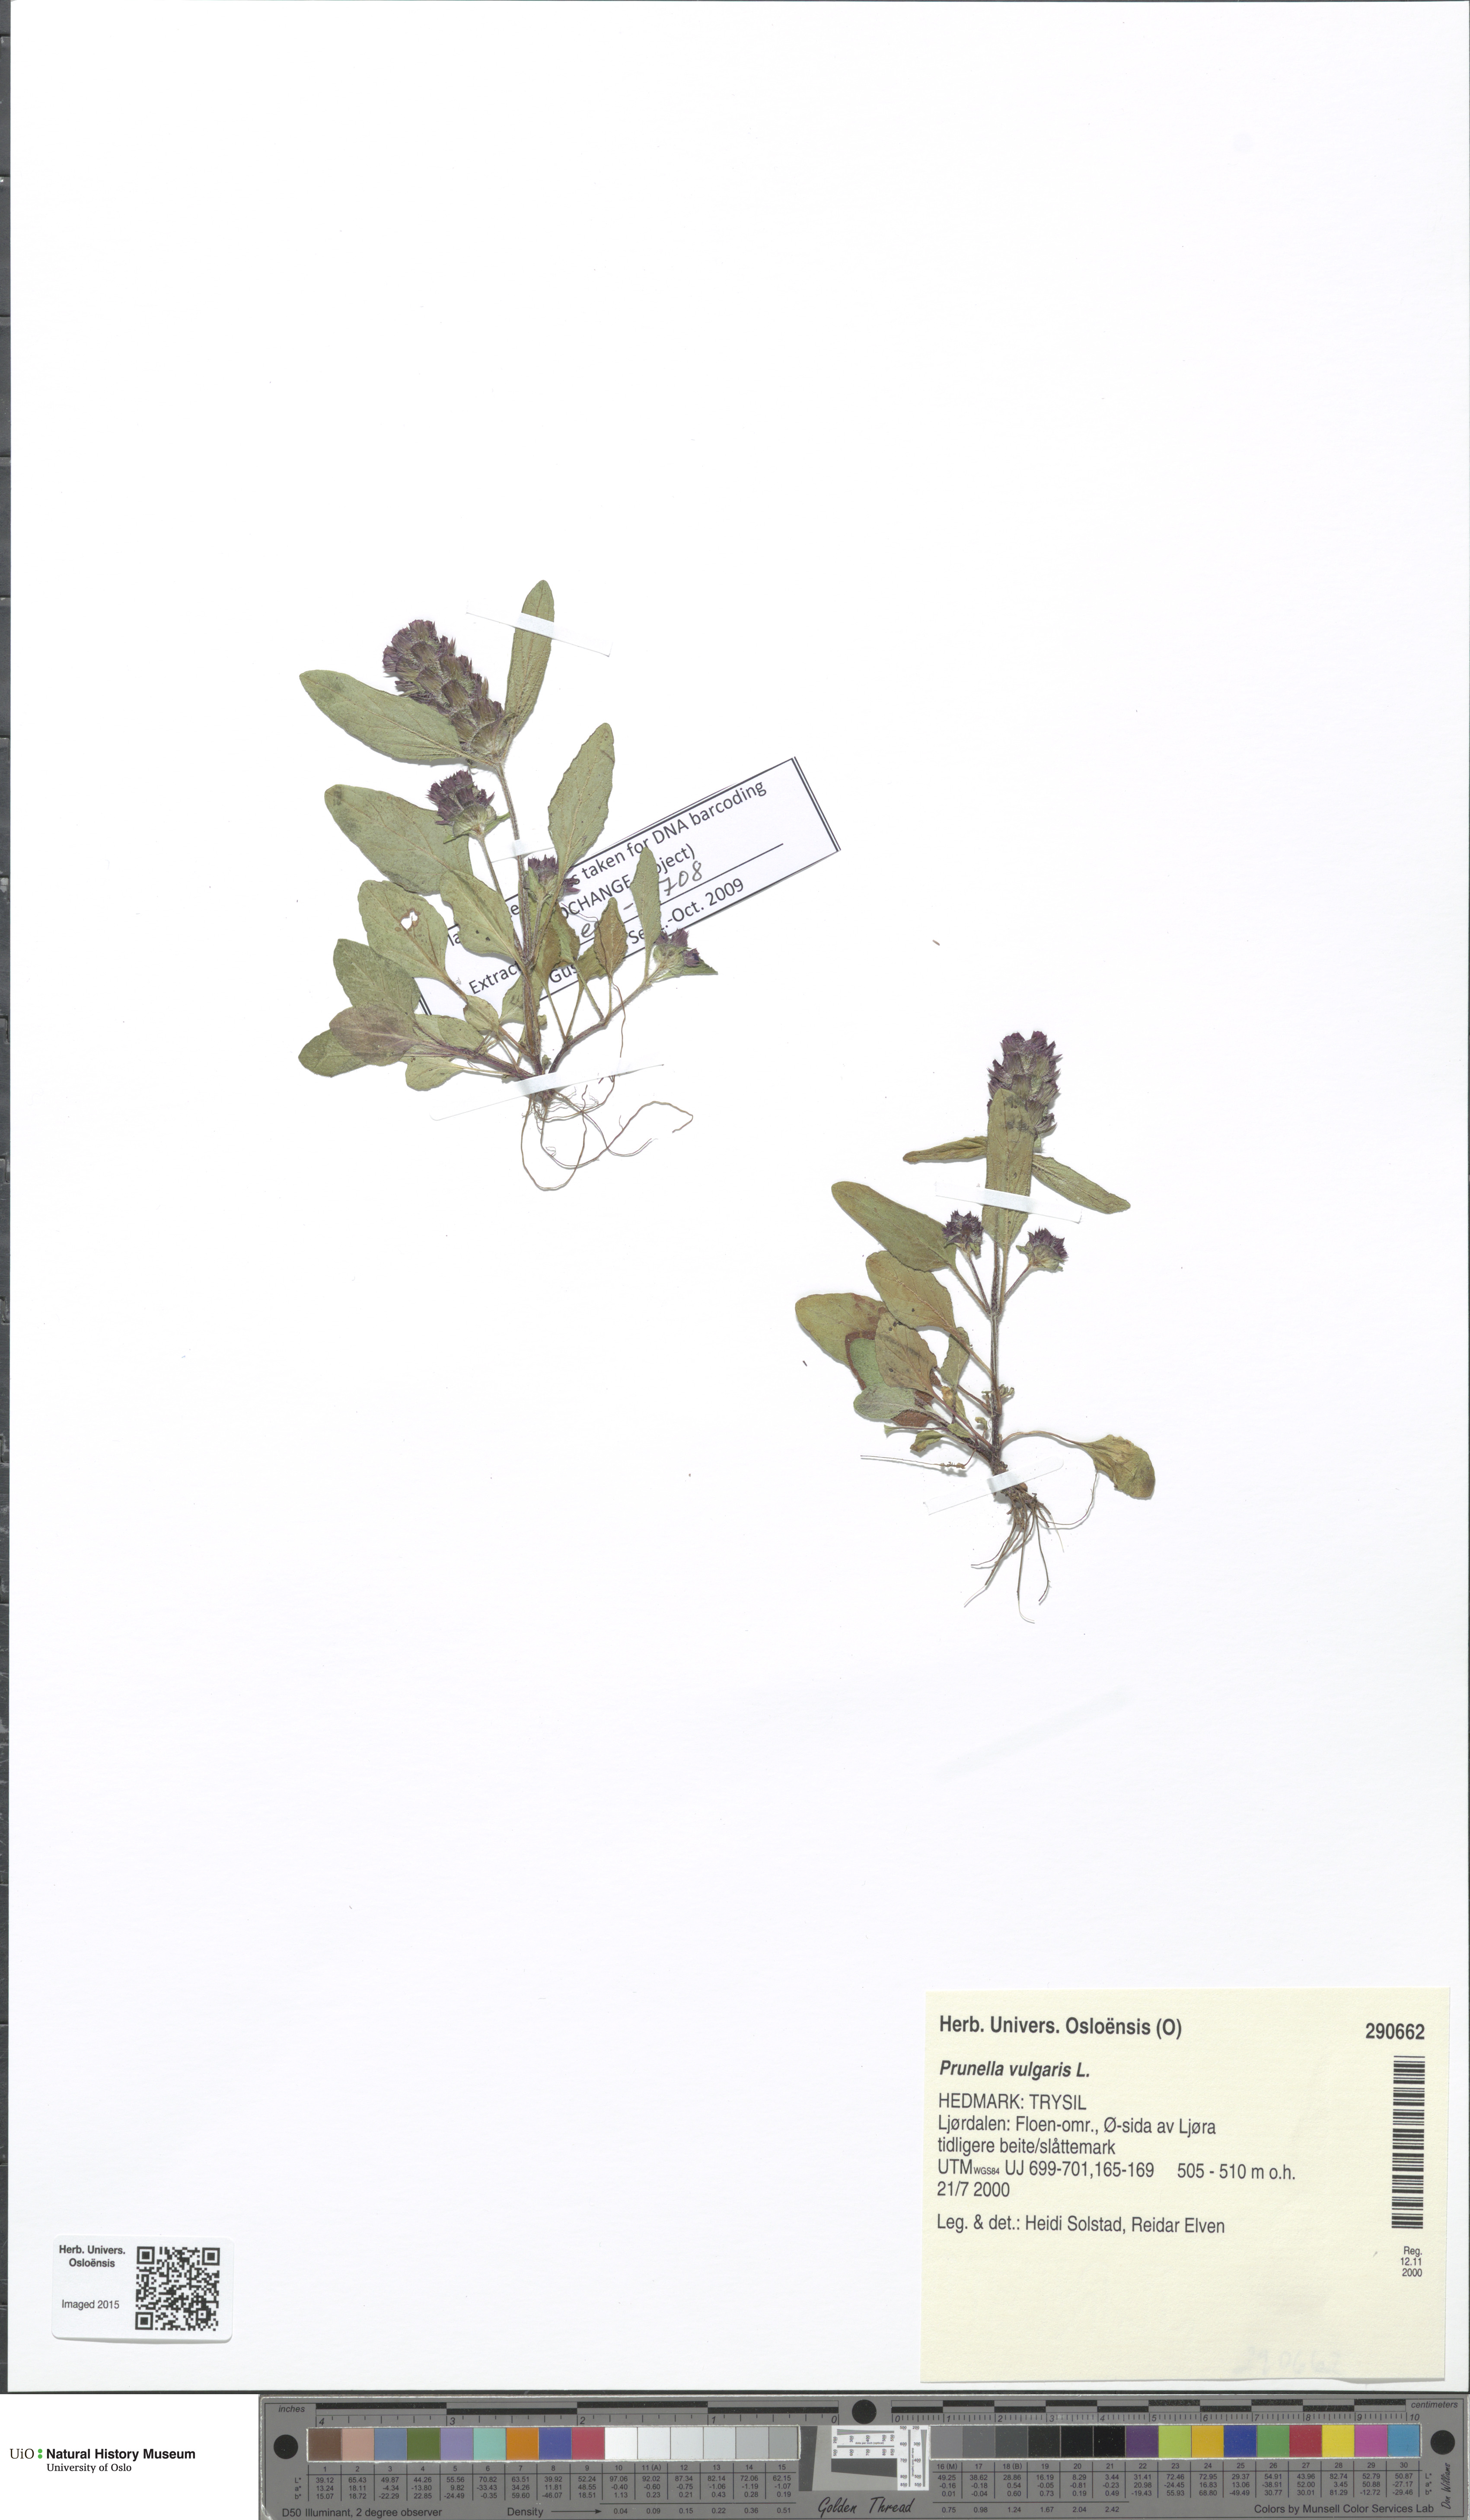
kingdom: Plantae
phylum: Tracheophyta
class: Magnoliopsida
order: Lamiales
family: Lamiaceae
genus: Prunella
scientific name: Prunella vulgaris
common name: Heal-all
